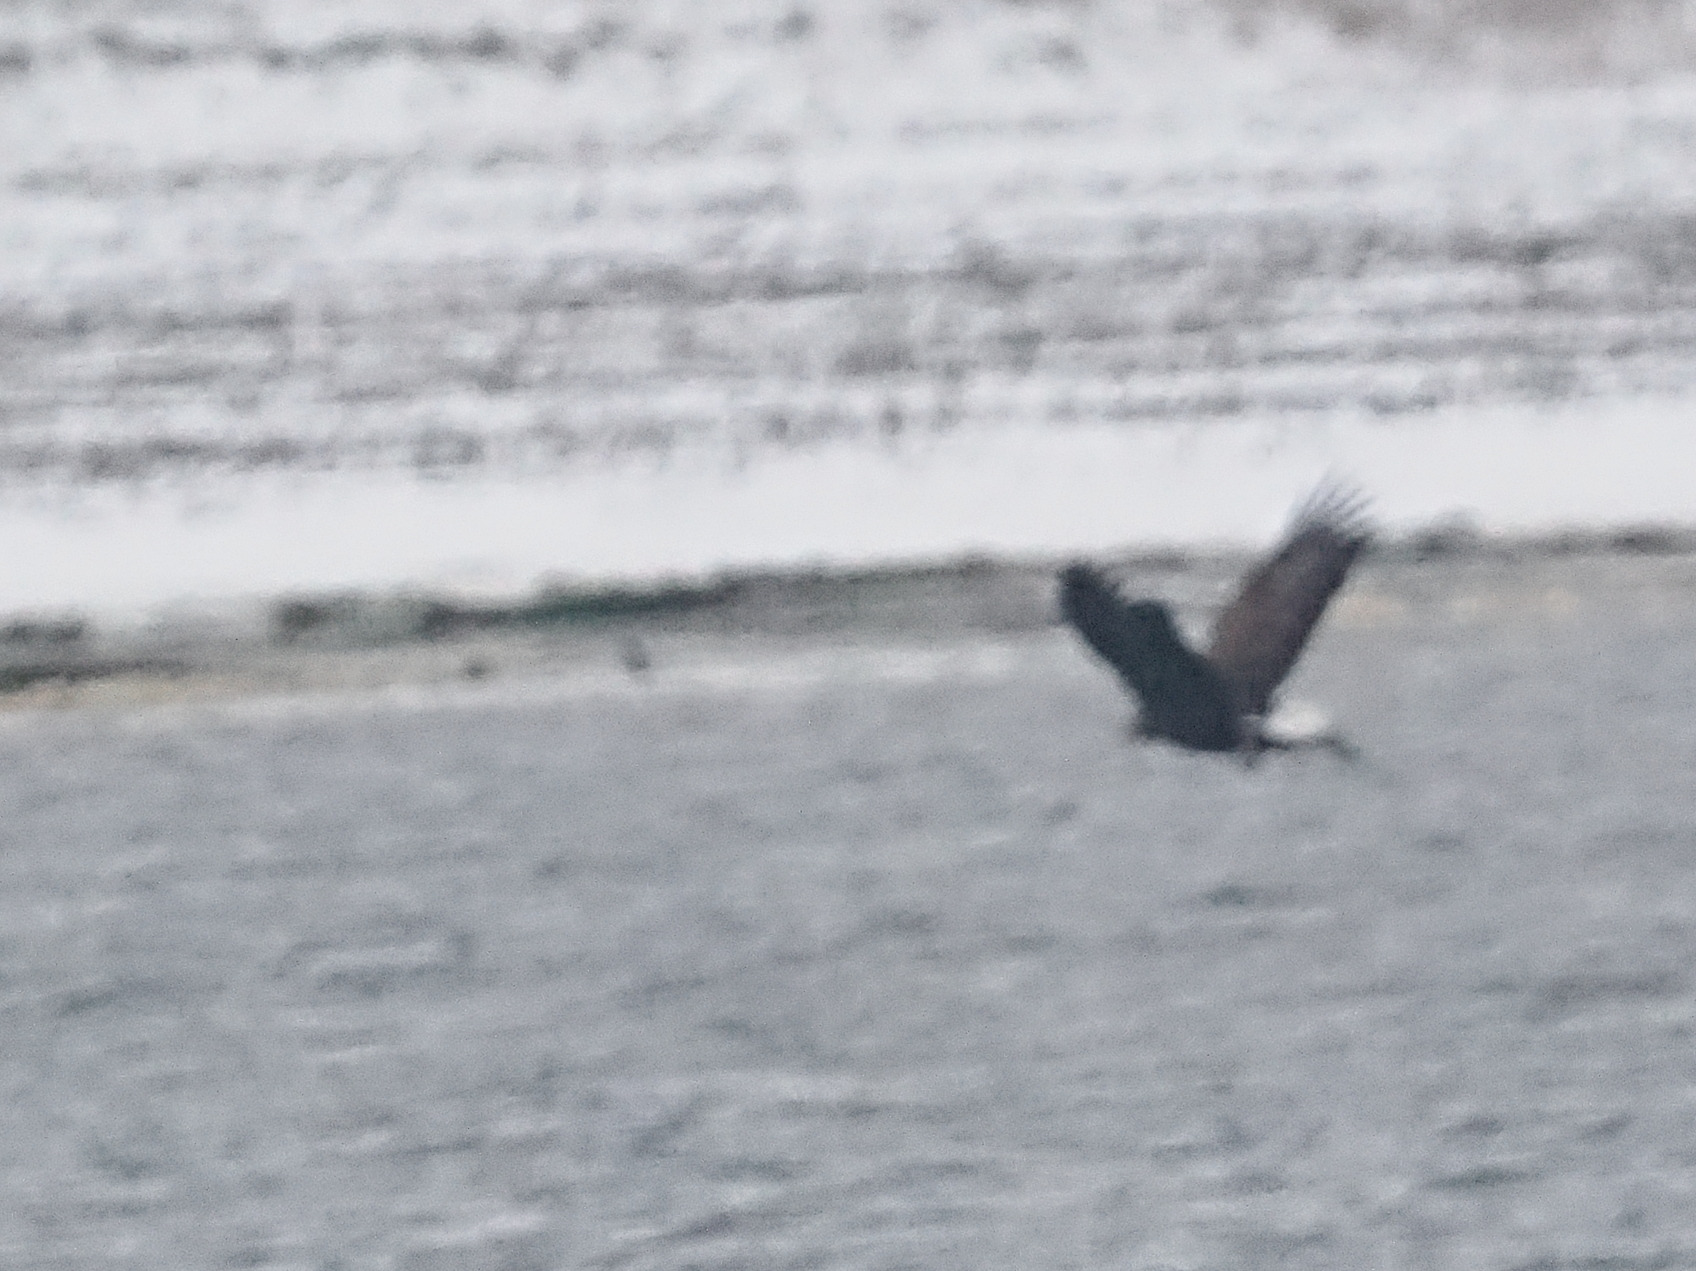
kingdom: Animalia
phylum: Chordata
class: Aves
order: Accipitriformes
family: Accipitridae
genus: Haliaeetus
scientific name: Haliaeetus albicilla
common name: Havørn
